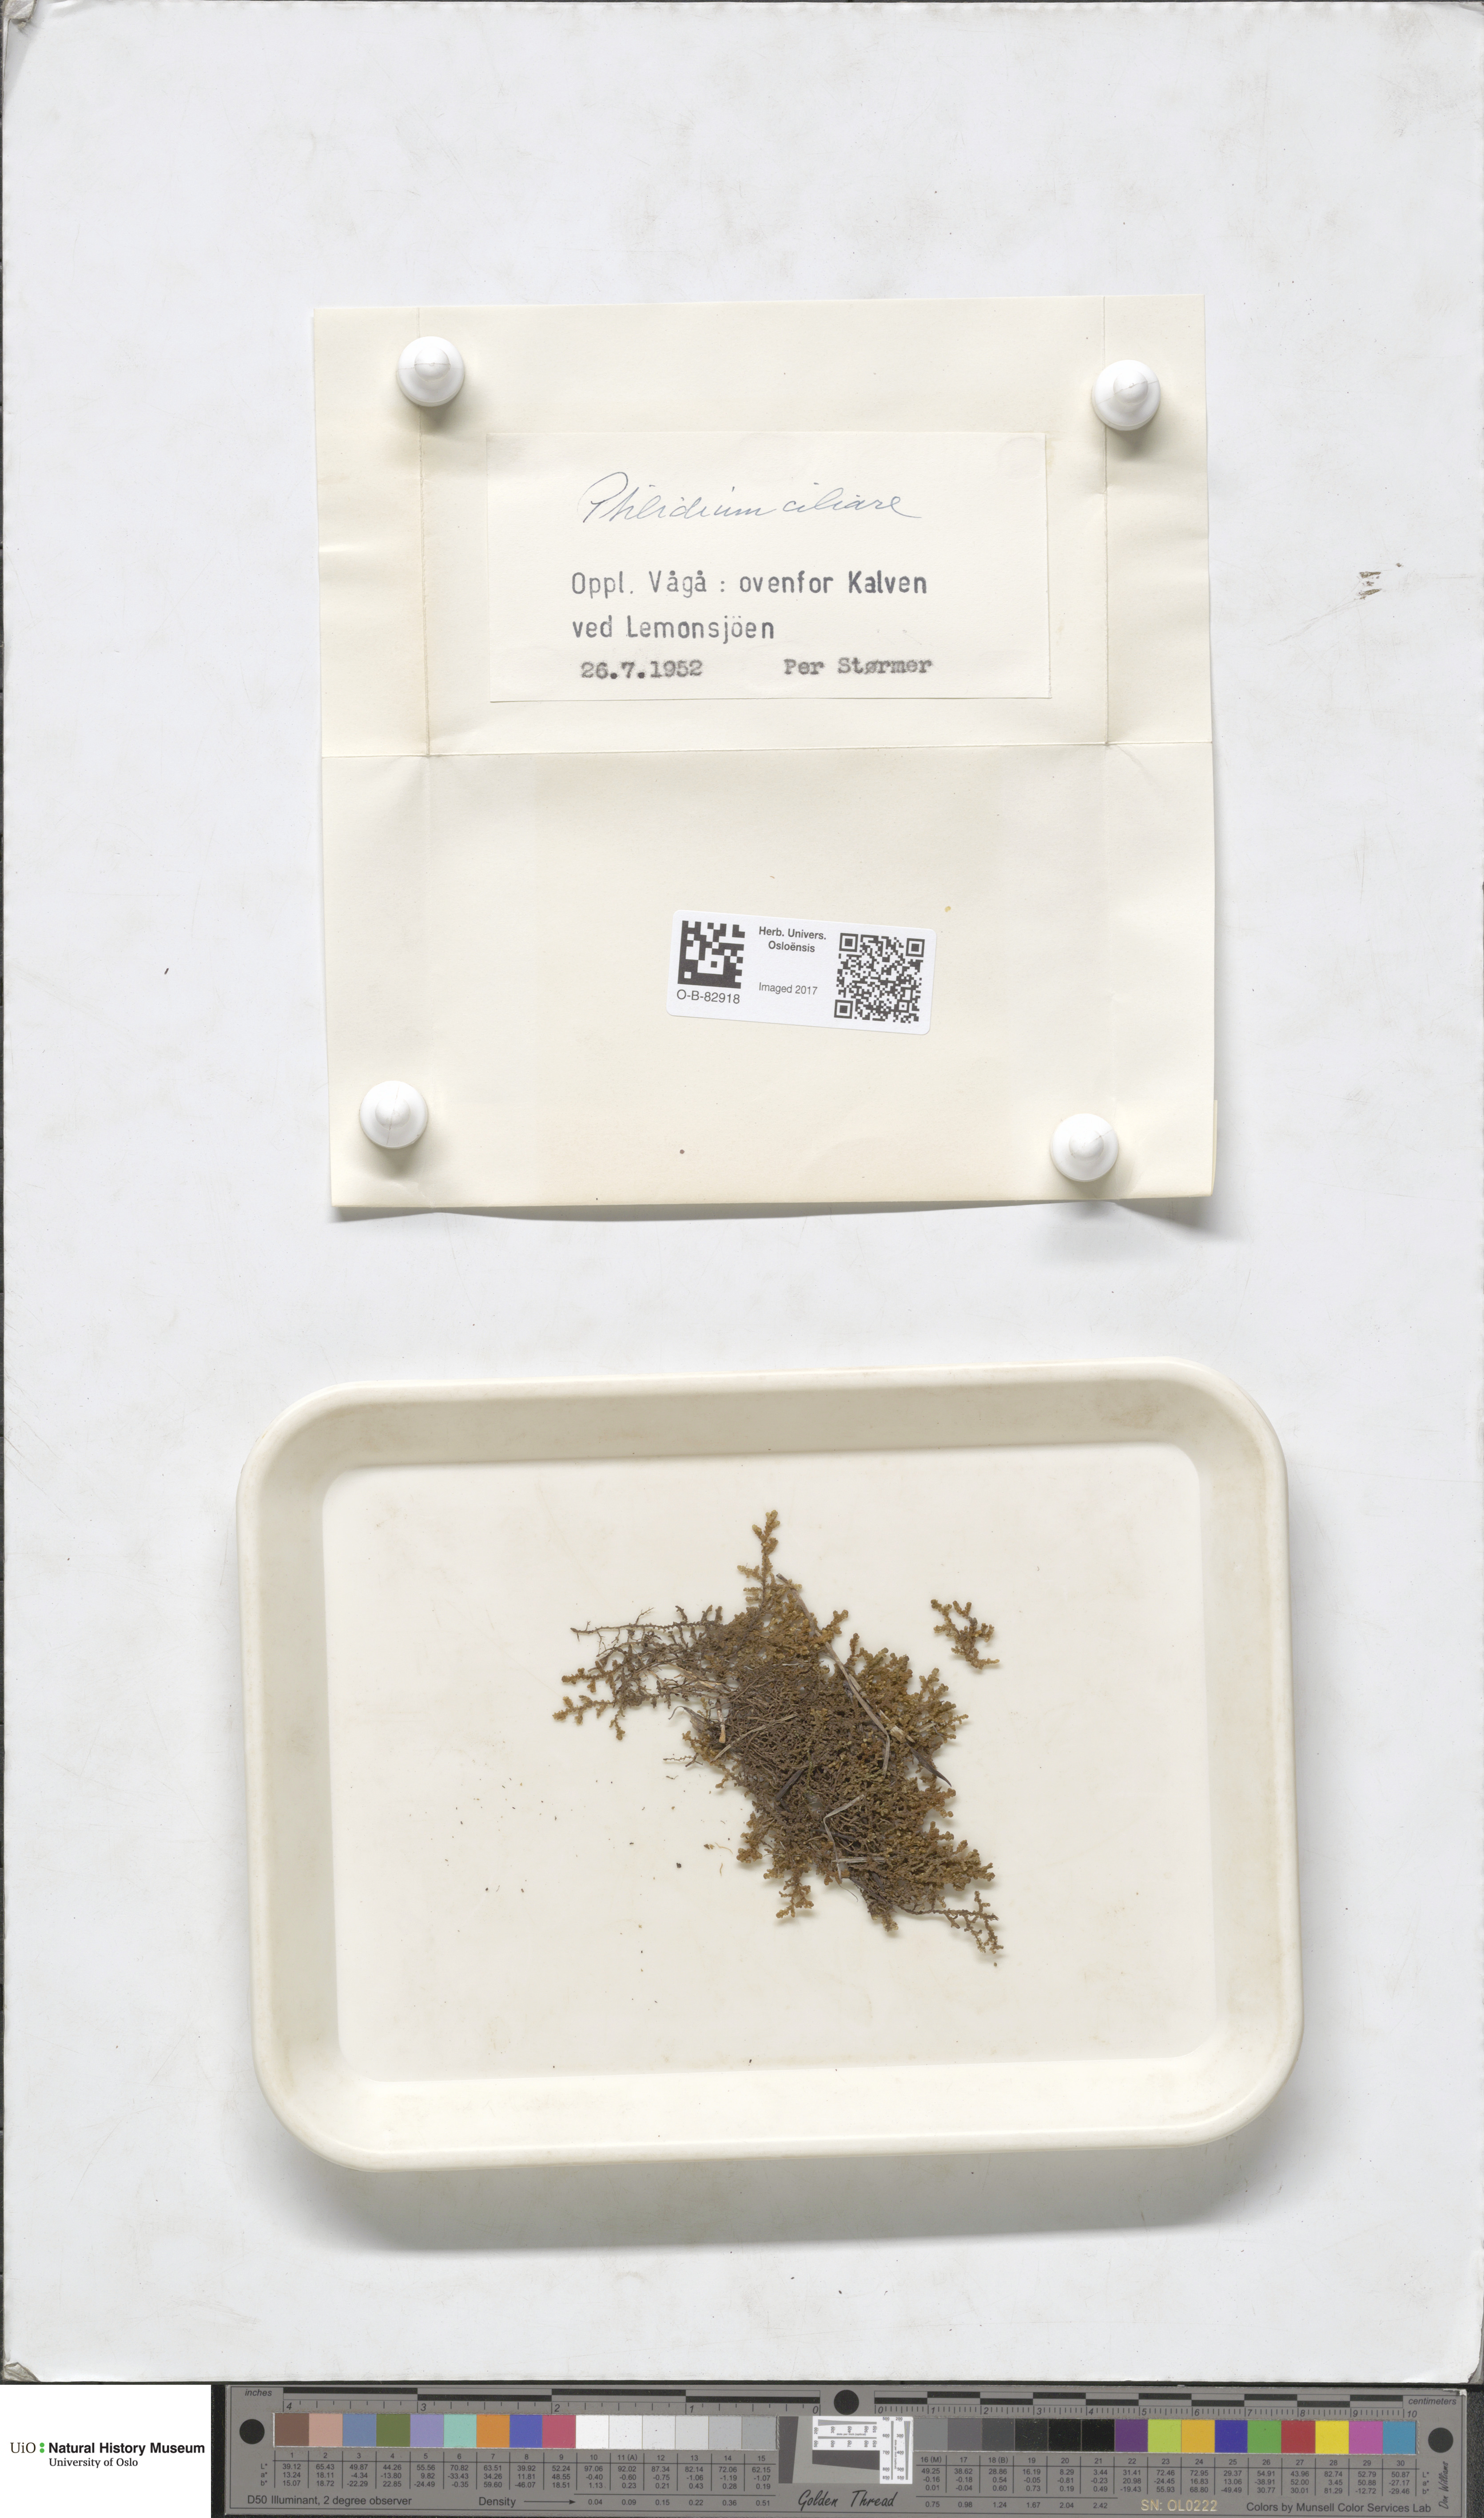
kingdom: Plantae
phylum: Marchantiophyta
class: Jungermanniopsida
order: Ptilidiales
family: Ptilidiaceae
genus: Ptilidium
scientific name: Ptilidium ciliare
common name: Ciliate fringewort
